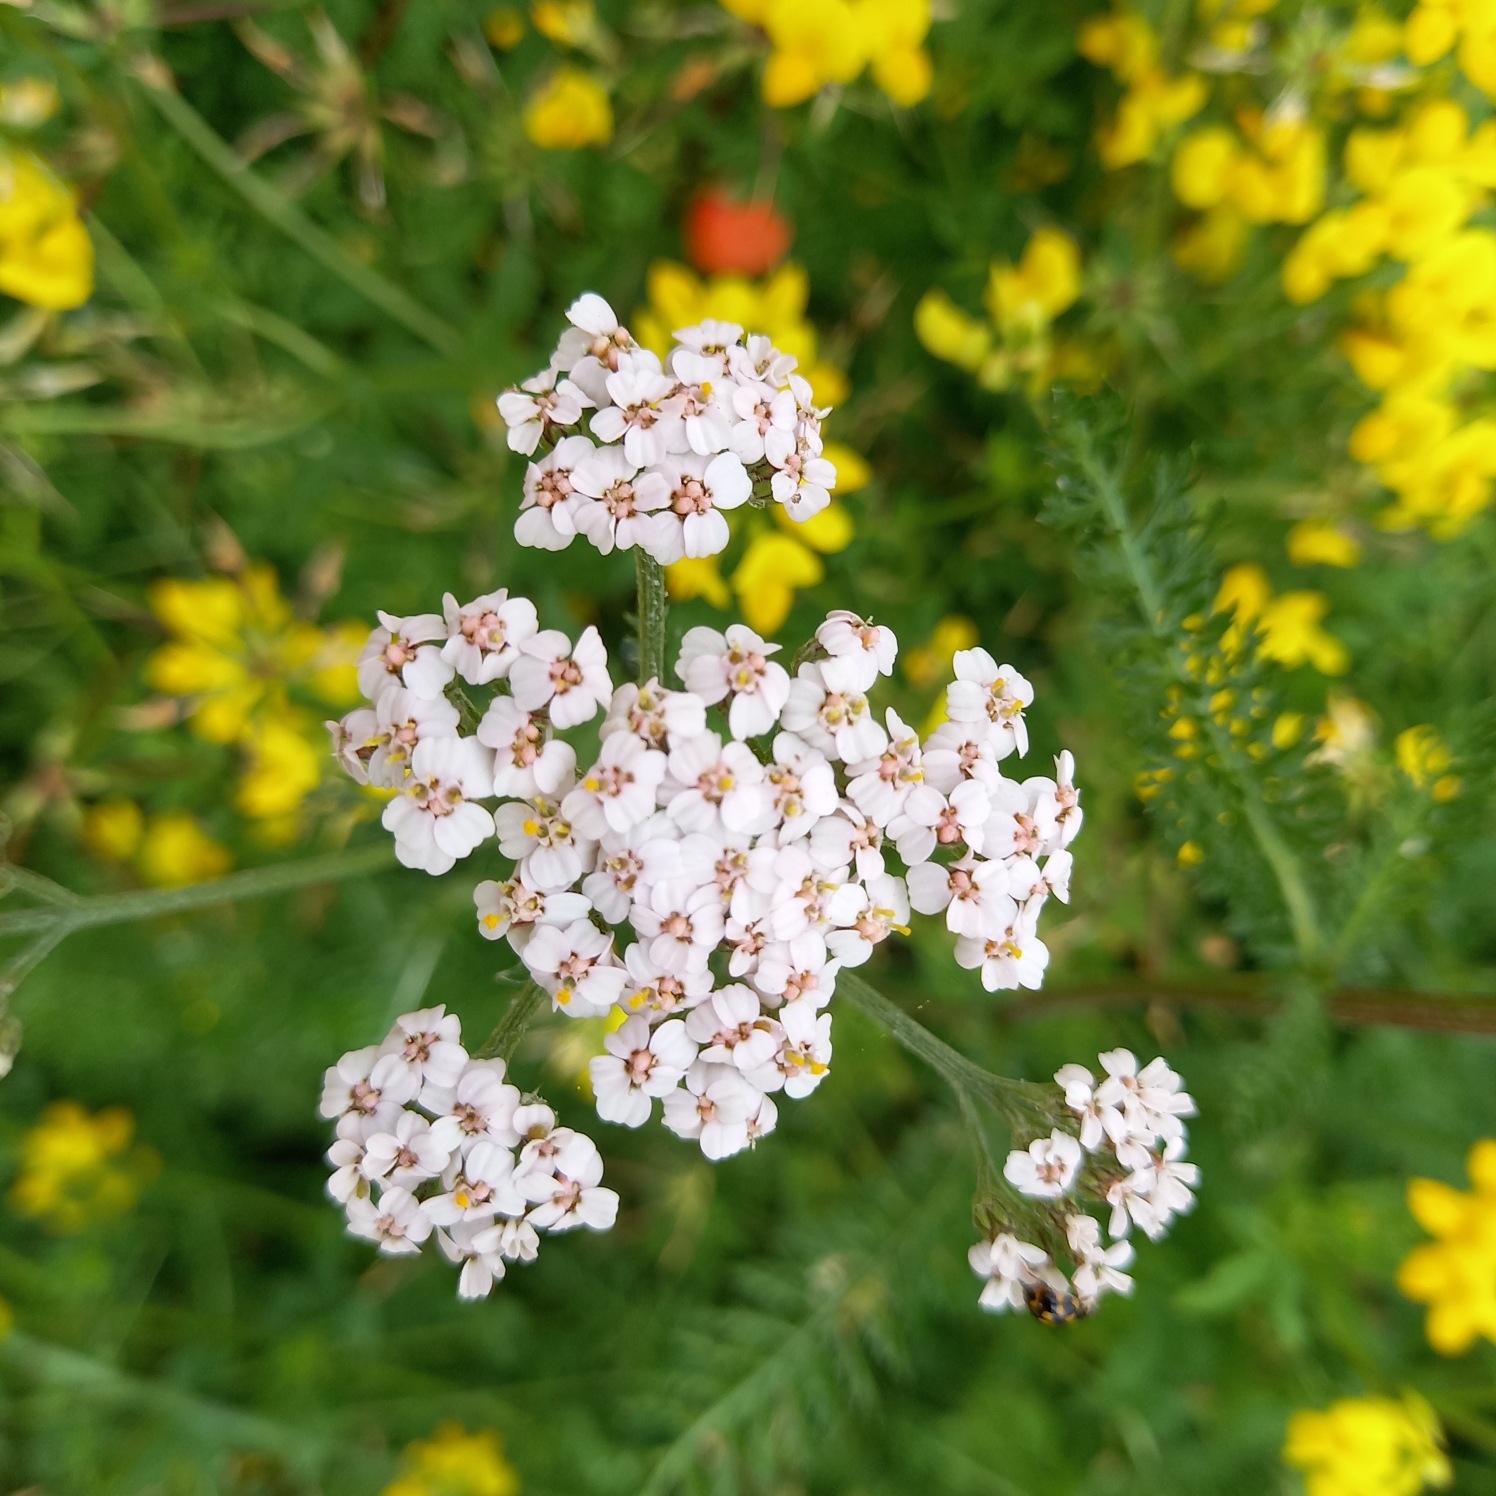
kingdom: Plantae
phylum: Tracheophyta
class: Magnoliopsida
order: Asterales
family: Asteraceae
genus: Achillea
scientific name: Achillea millefolium
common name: Almindelig røllike
